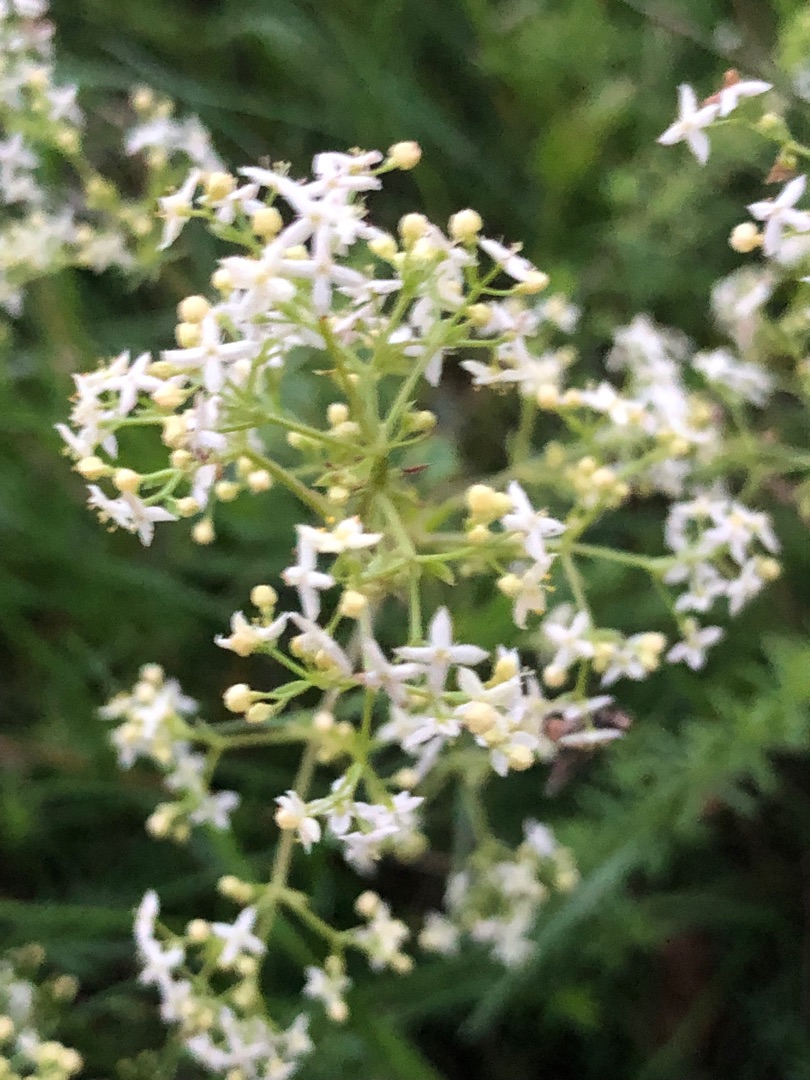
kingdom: Plantae
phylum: Tracheophyta
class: Magnoliopsida
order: Gentianales
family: Rubiaceae
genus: Galium
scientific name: Galium mollugo
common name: Hvid snerre
